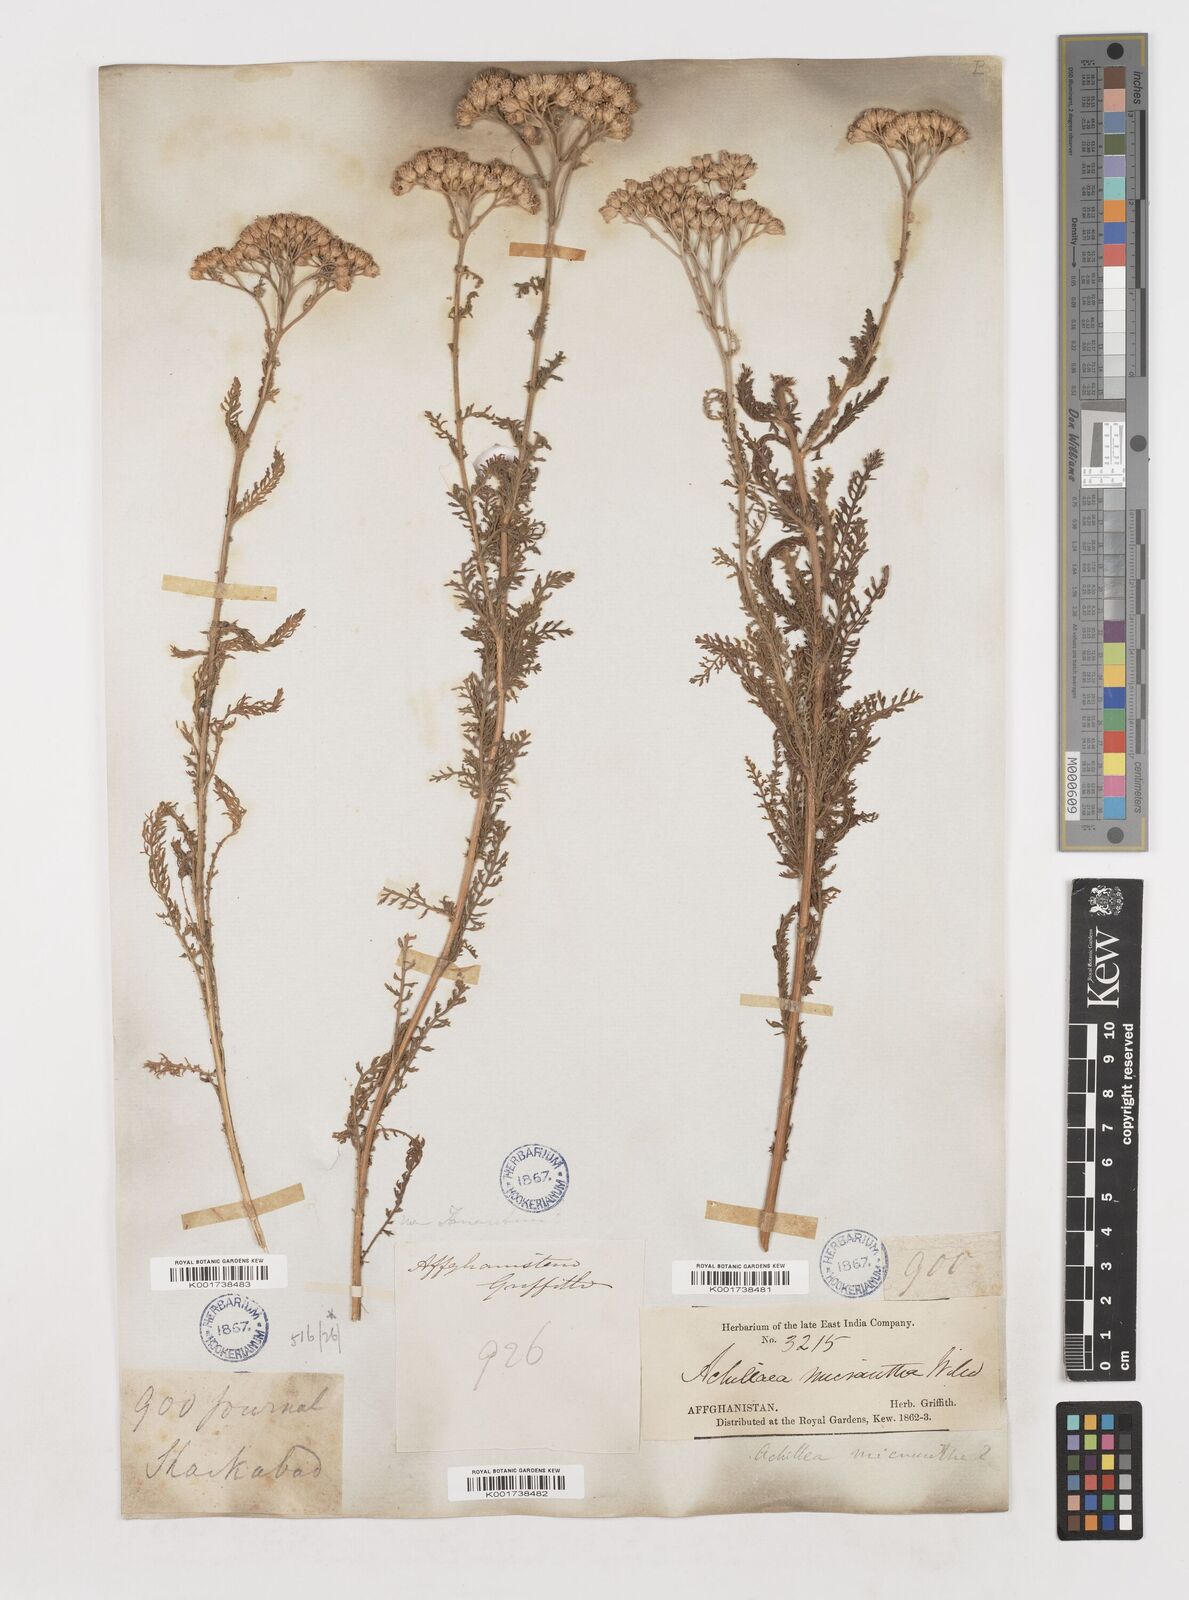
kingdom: Plantae
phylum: Tracheophyta
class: Magnoliopsida
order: Asterales
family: Asteraceae
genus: Achillea
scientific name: Achillea arabica
